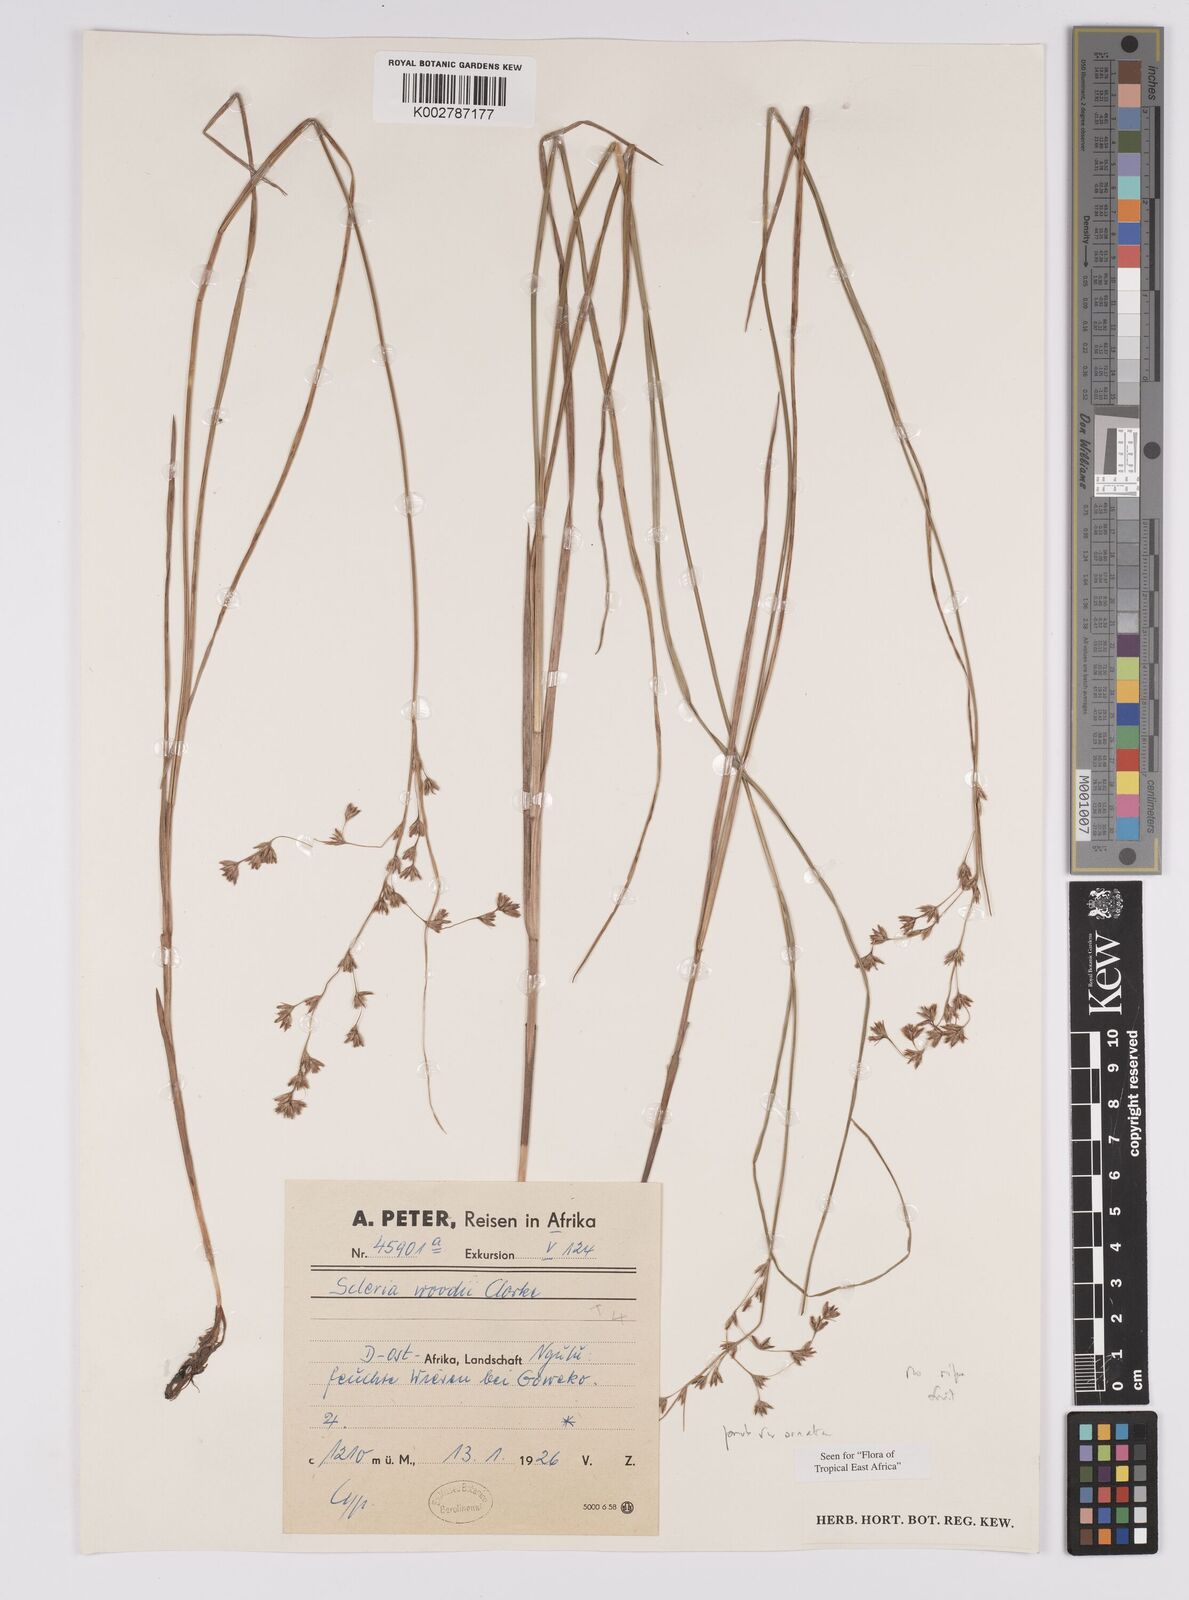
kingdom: Plantae
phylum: Tracheophyta
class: Liliopsida
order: Poales
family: Cyperaceae
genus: Scleria
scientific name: Scleria woodii
